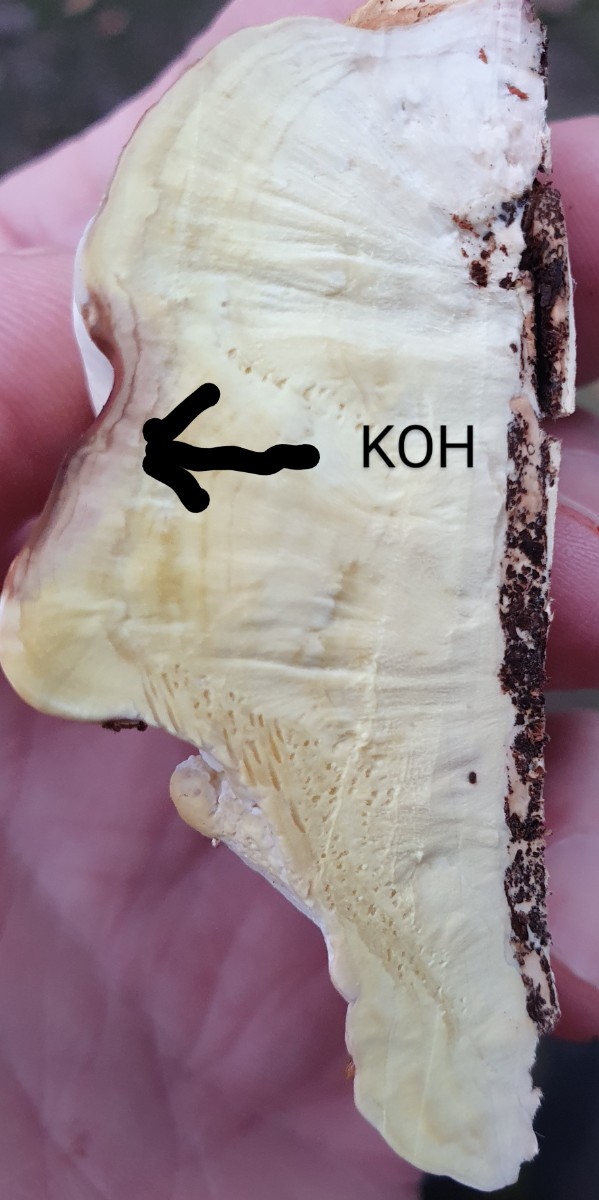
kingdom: Fungi
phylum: Basidiomycota
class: Agaricomycetes
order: Polyporales
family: Fomitopsidaceae
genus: Fomitopsis
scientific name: Fomitopsis pinicola
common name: randbæltet hovporesvamp
